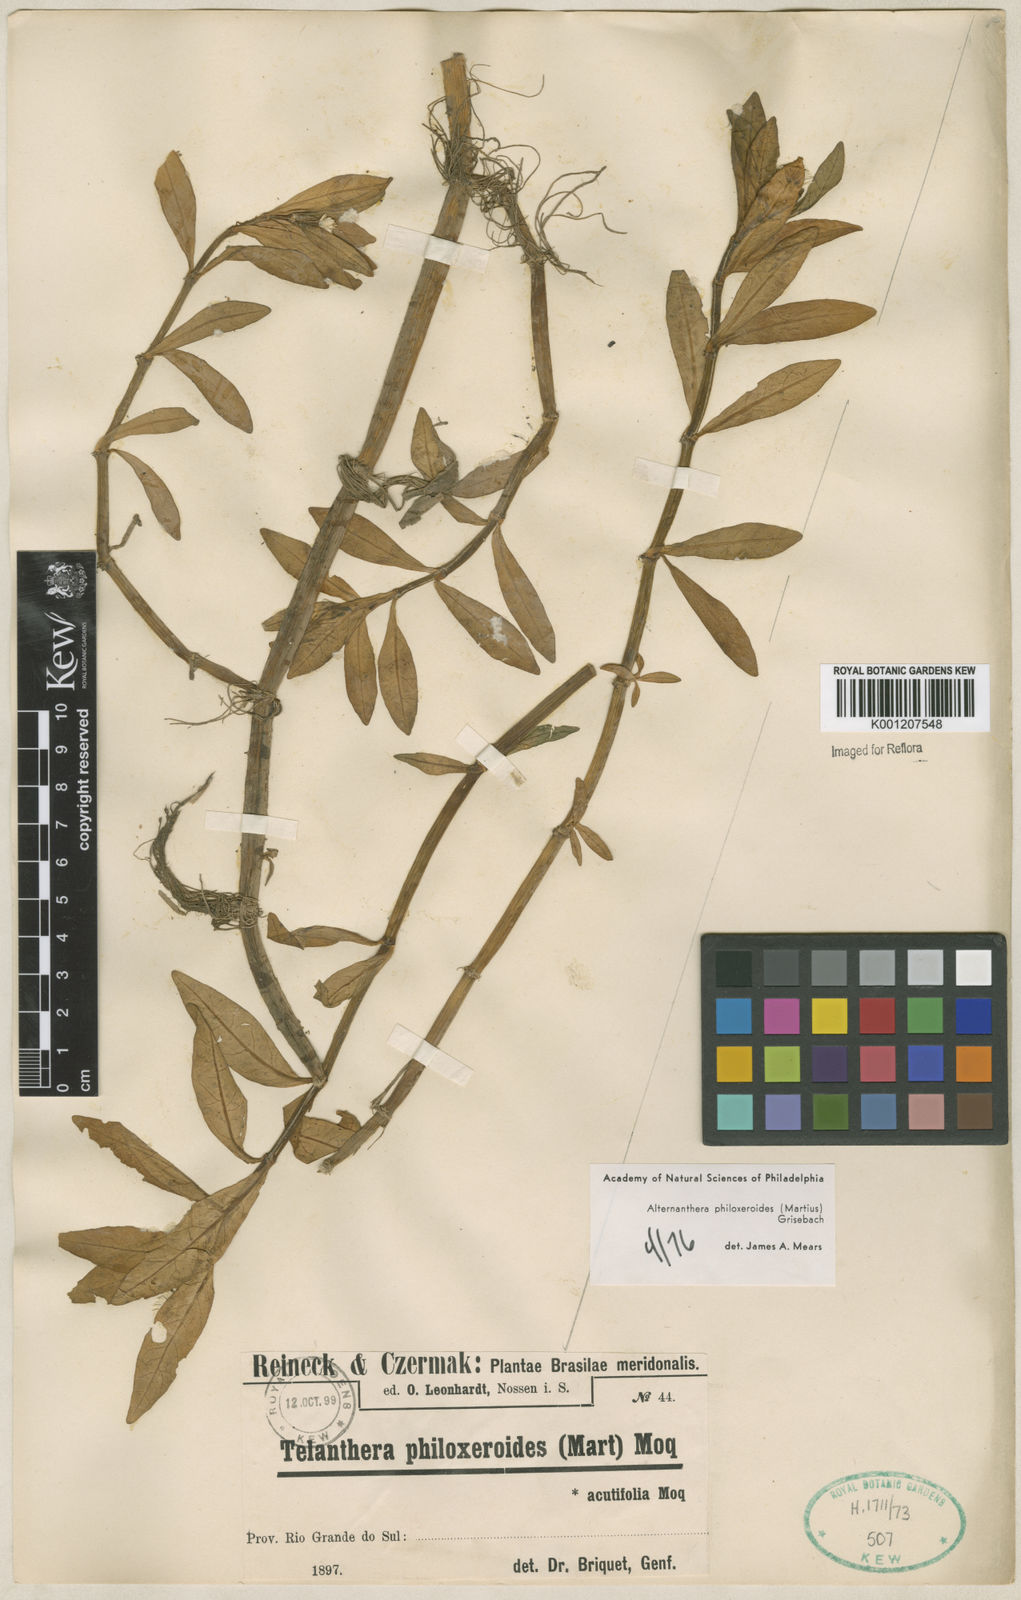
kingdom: Plantae
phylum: Tracheophyta
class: Magnoliopsida
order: Caryophyllales
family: Amaranthaceae
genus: Alternanthera
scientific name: Alternanthera philoxeroides
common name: Alligatorweed
